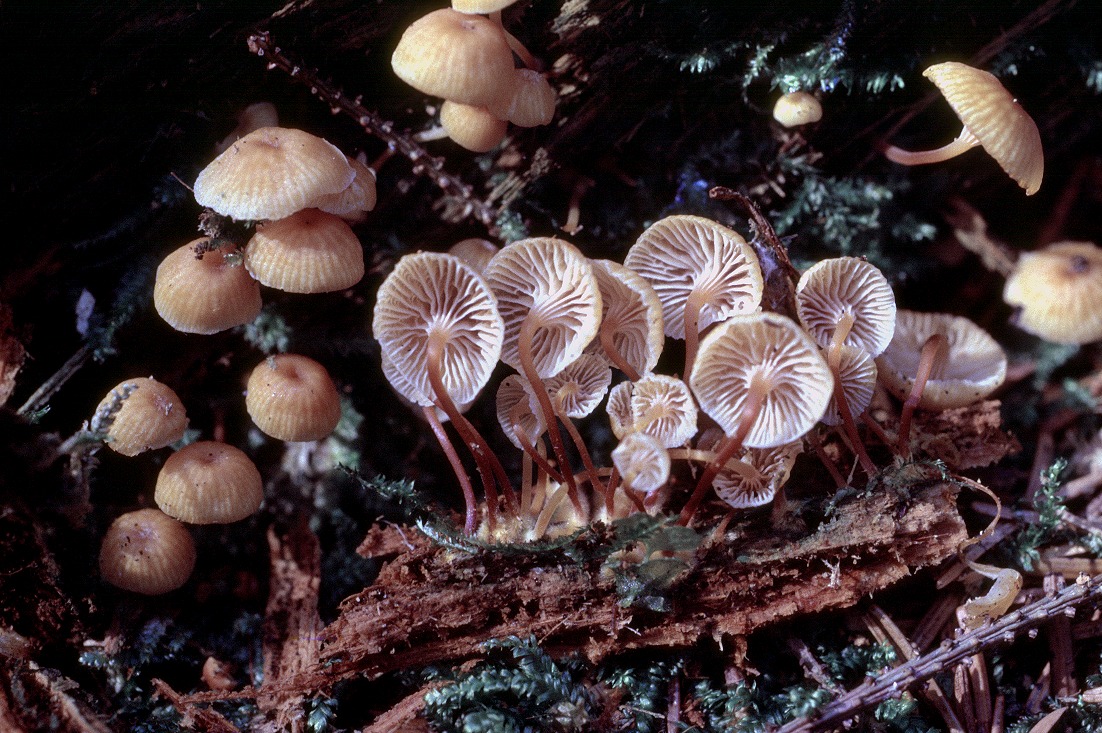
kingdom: Fungi
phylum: Basidiomycota
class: Agaricomycetes
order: Agaricales
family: Mycenaceae
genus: Xeromphalina
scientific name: Xeromphalina campanella
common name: klokke-tørhat
